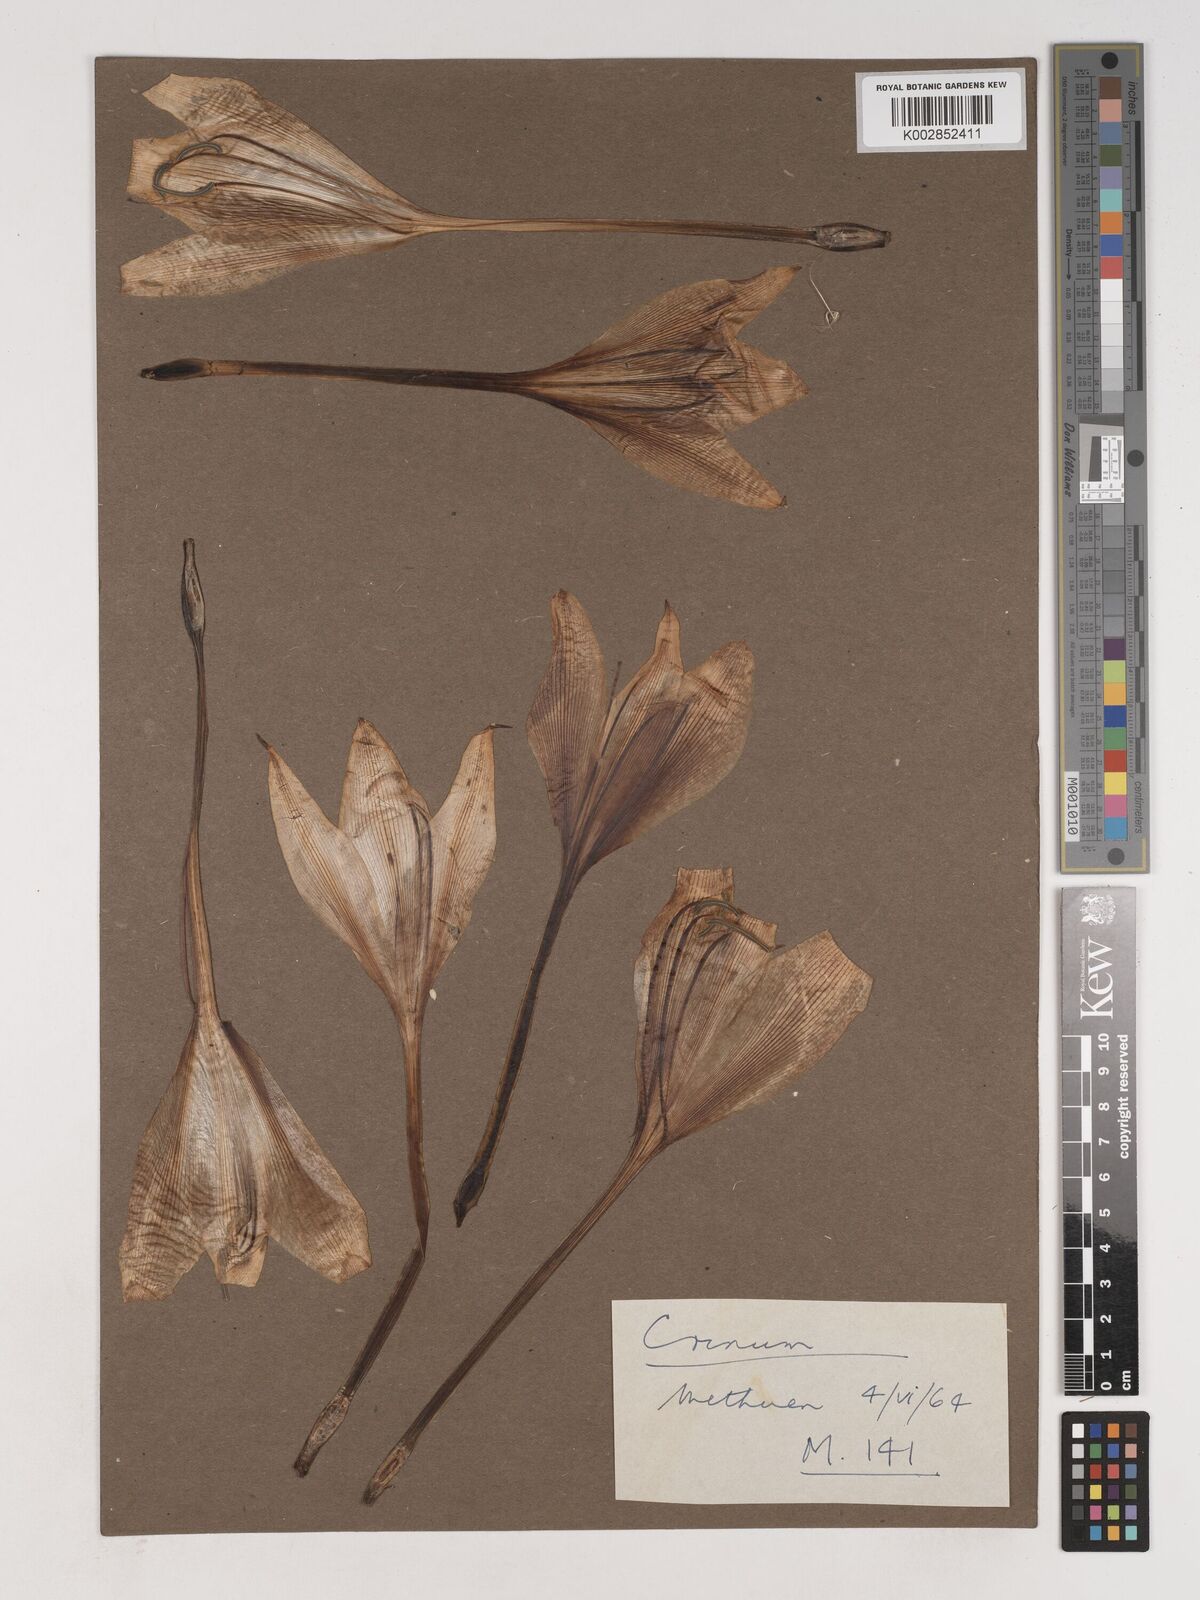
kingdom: Plantae
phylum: Tracheophyta
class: Liliopsida
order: Asparagales
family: Amaryllidaceae
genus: Crinum
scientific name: Crinum
